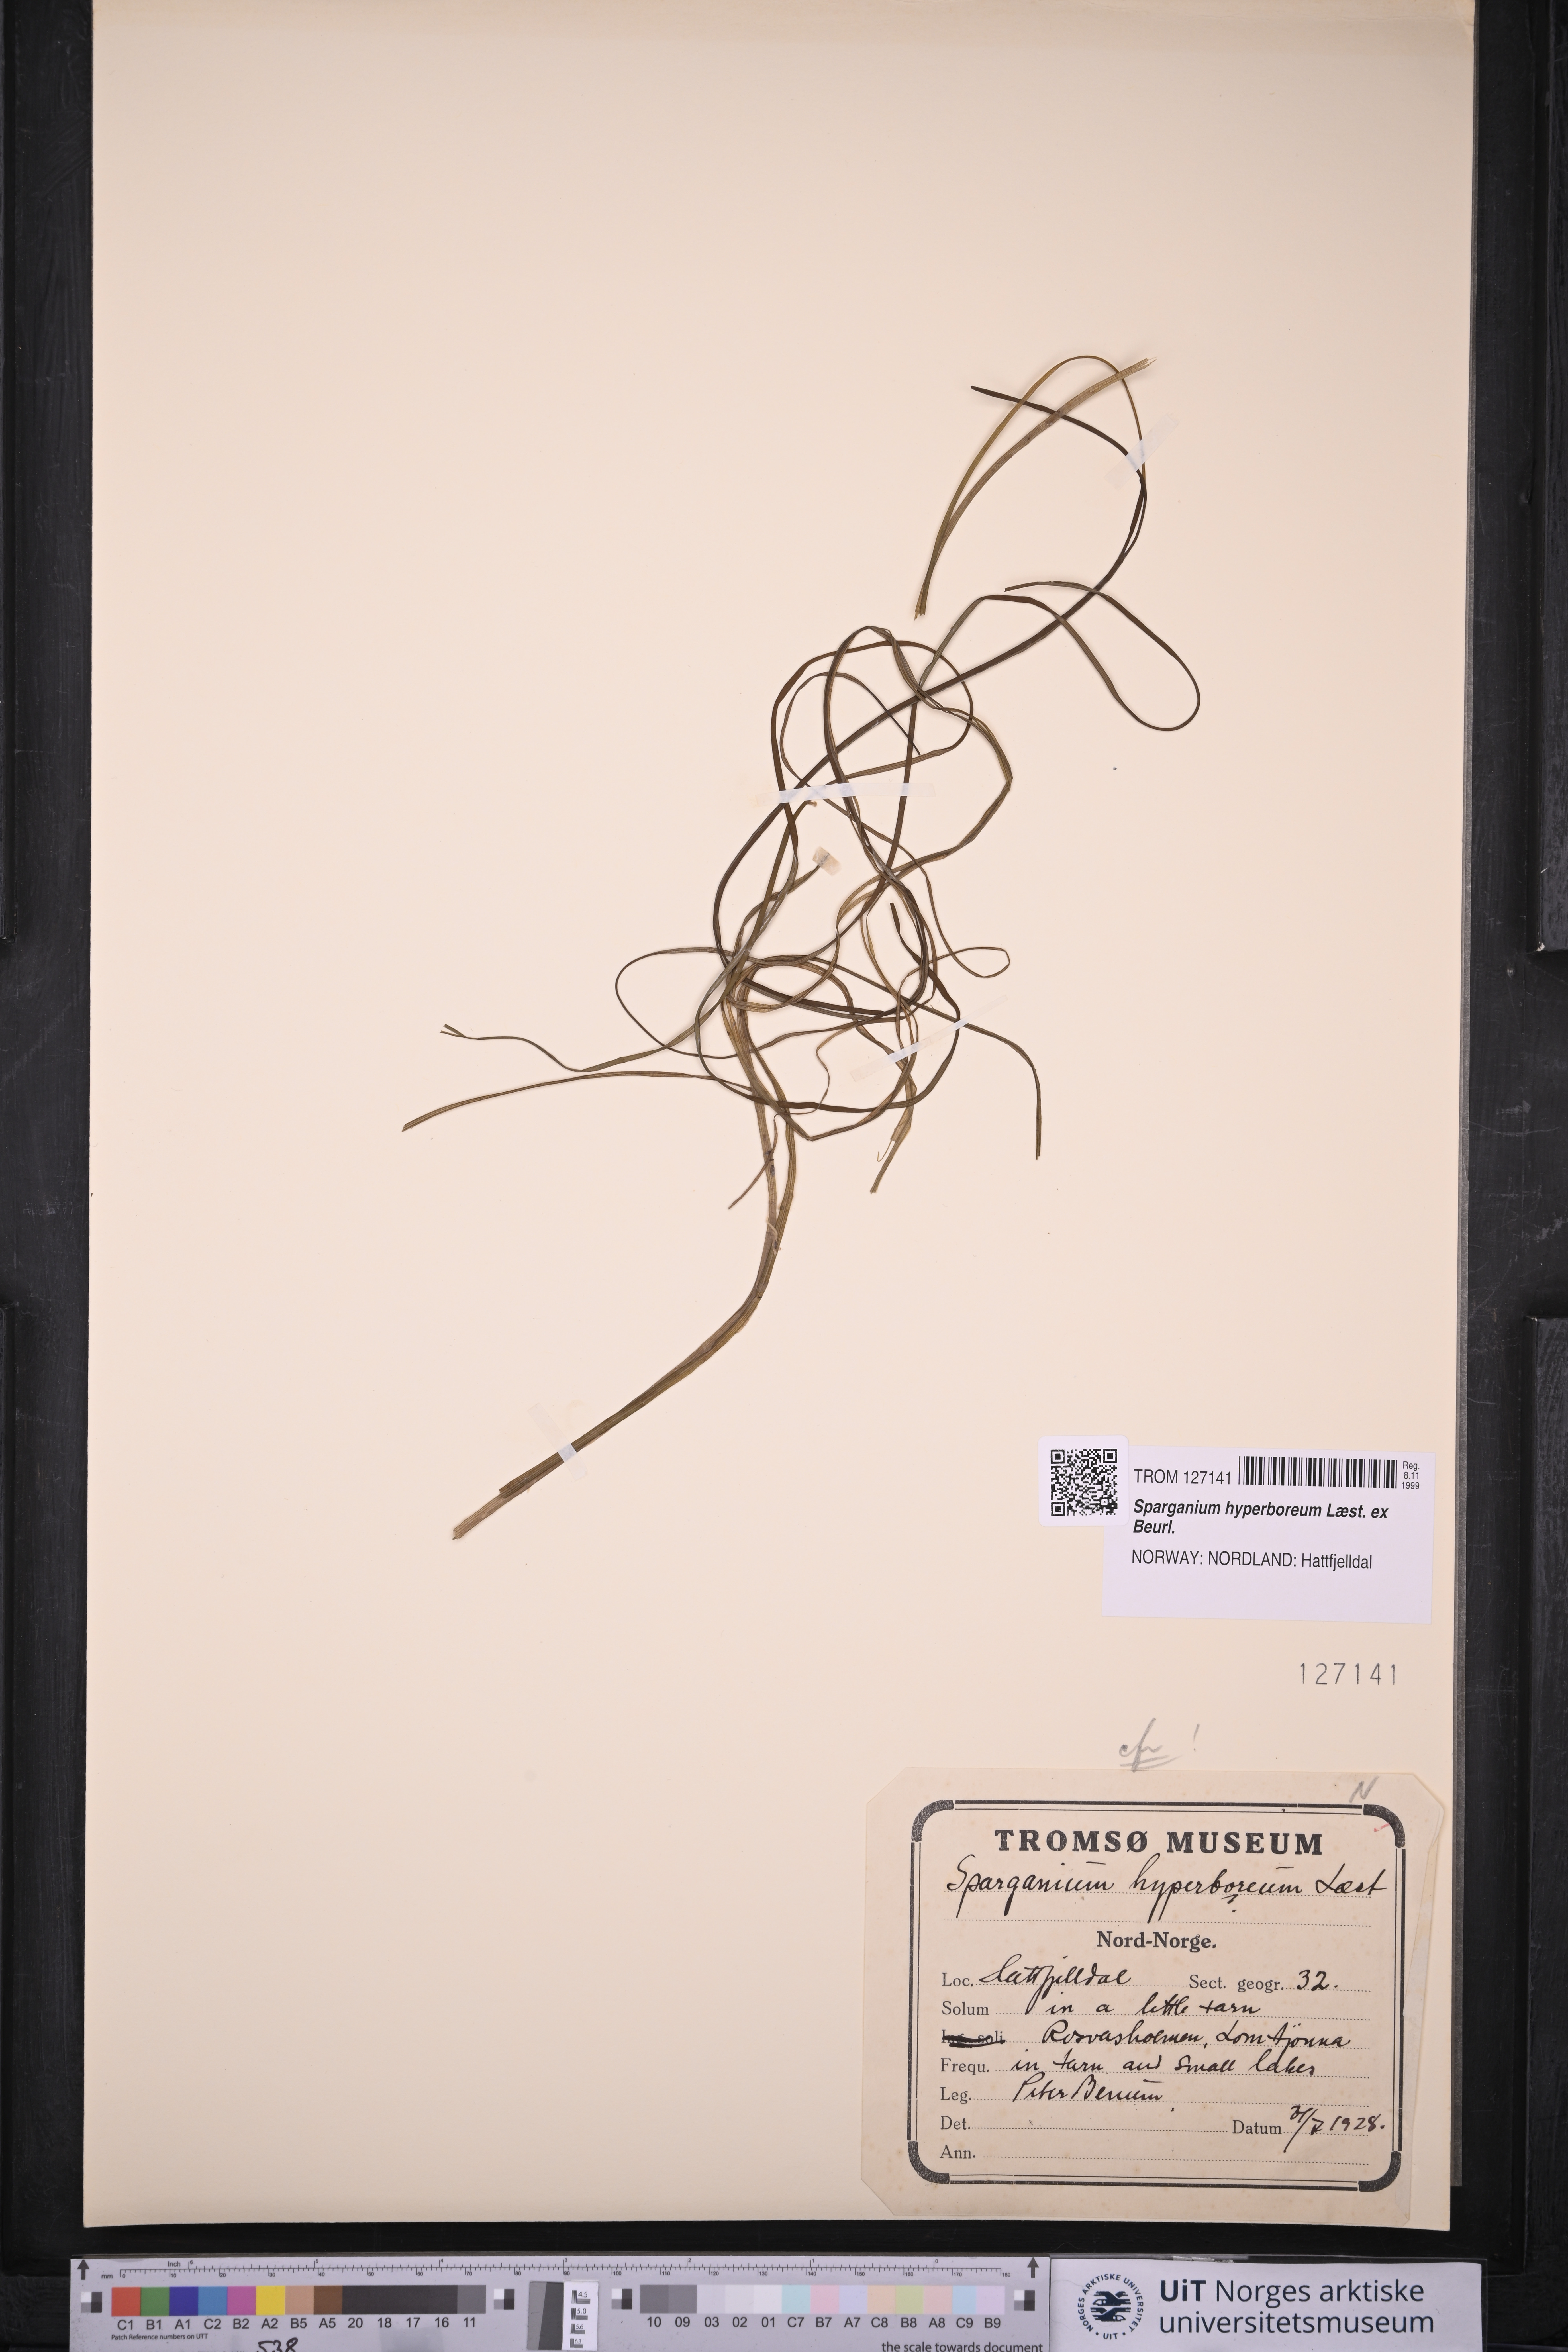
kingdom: Plantae
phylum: Tracheophyta
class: Liliopsida
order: Poales
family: Typhaceae
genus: Sparganium
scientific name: Sparganium hyperboreum
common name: Arctic burreed
